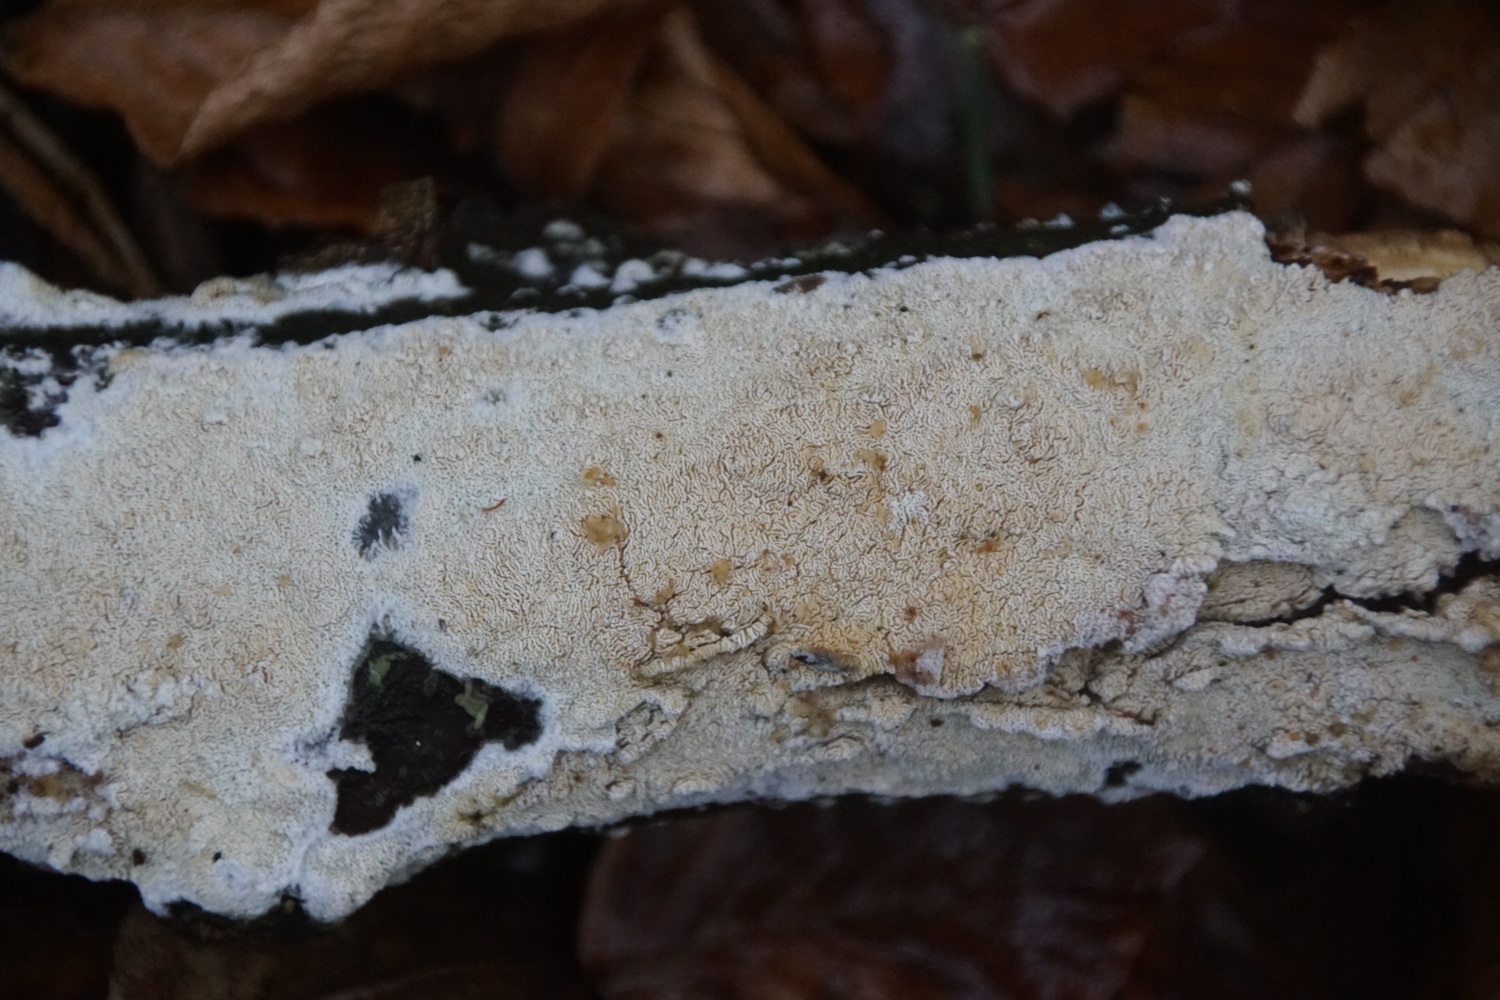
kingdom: Fungi
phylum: Basidiomycota
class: Agaricomycetes
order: Hymenochaetales
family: Schizoporaceae
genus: Xylodon
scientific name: Xylodon subtropicus
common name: labyrint-tandsvamp
